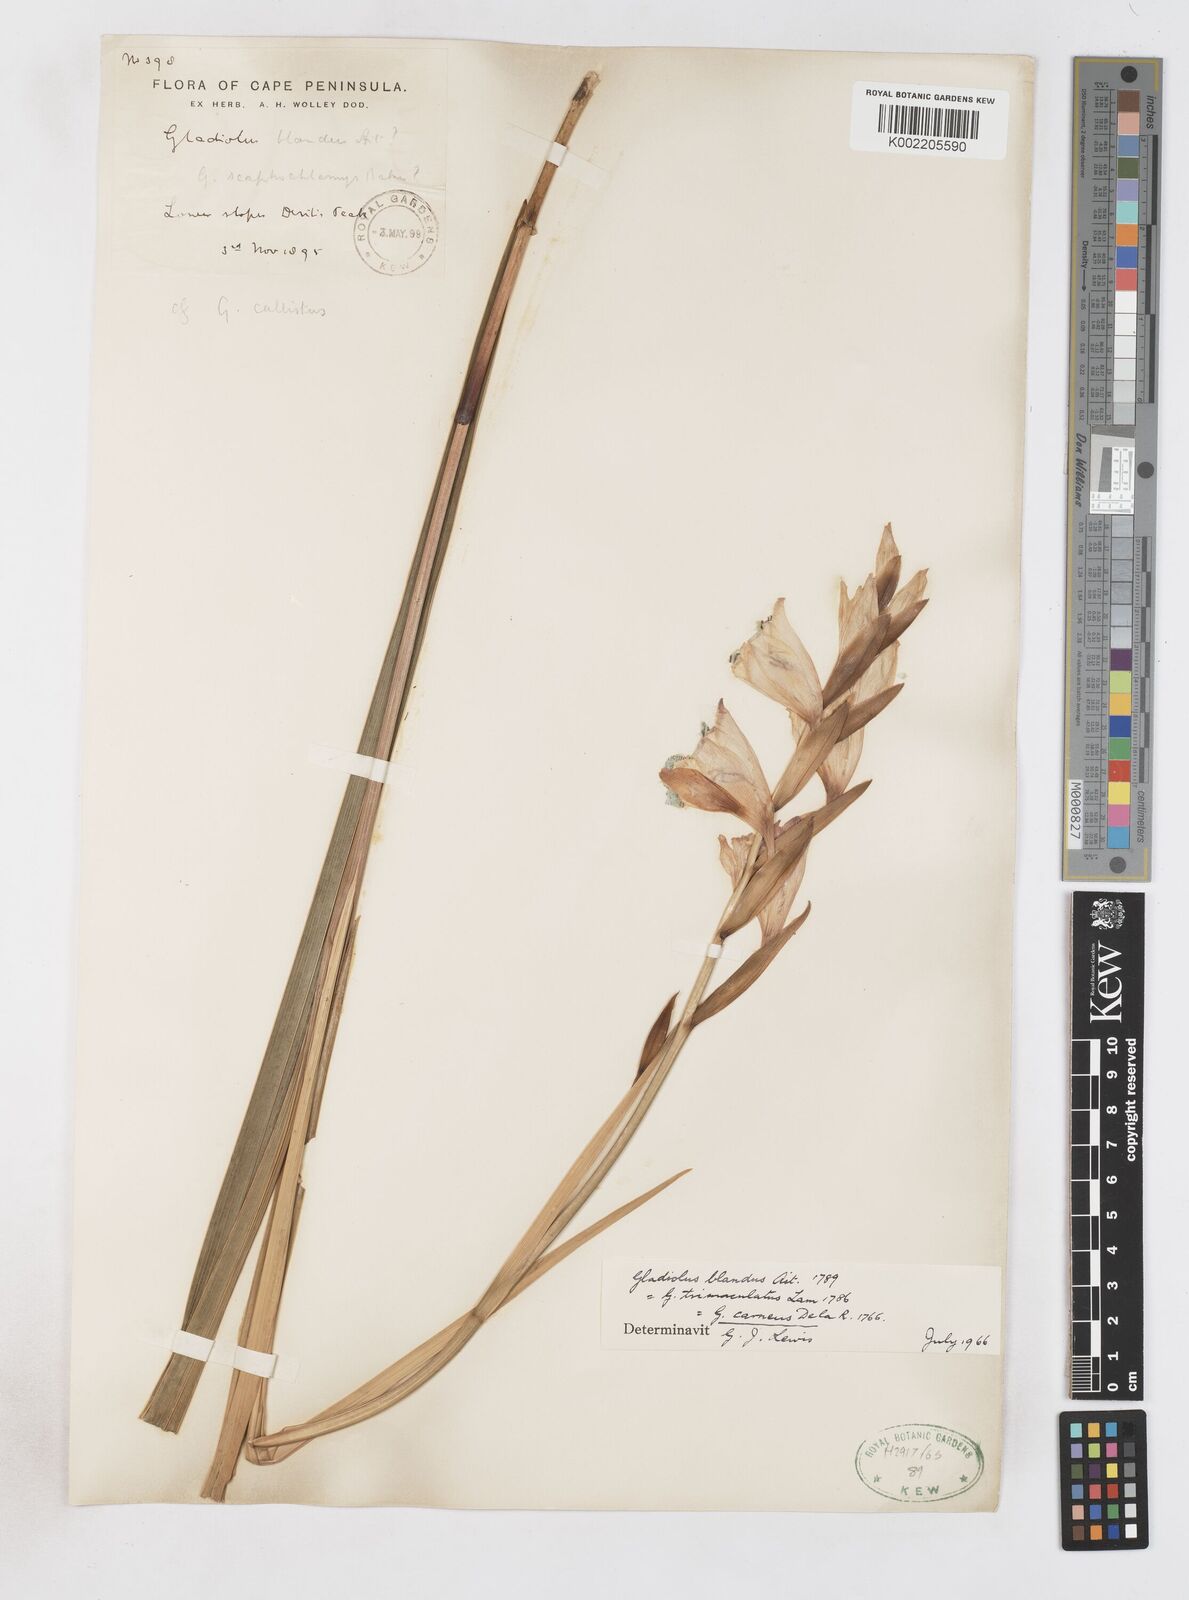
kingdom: Plantae
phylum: Tracheophyta
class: Liliopsida
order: Asparagales
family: Iridaceae
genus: Gladiolus
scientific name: Gladiolus carneus
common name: Painted-lady
